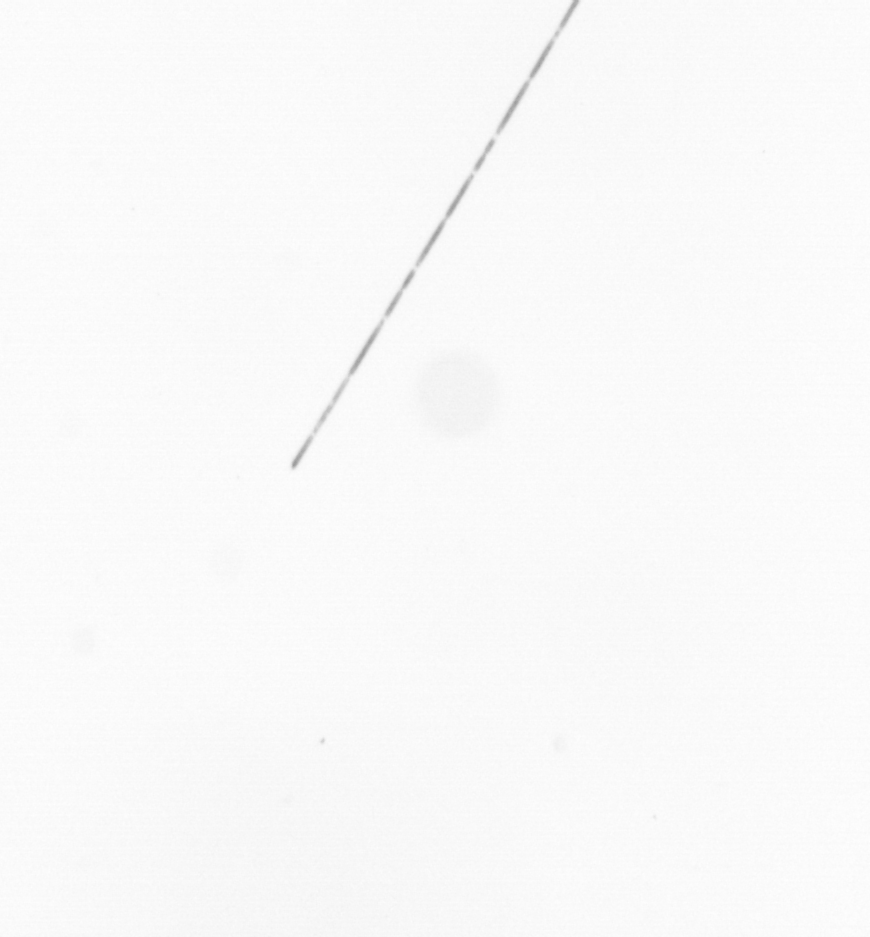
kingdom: Chromista
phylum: Ochrophyta
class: Bacillariophyceae
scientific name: Bacillariophyceae
